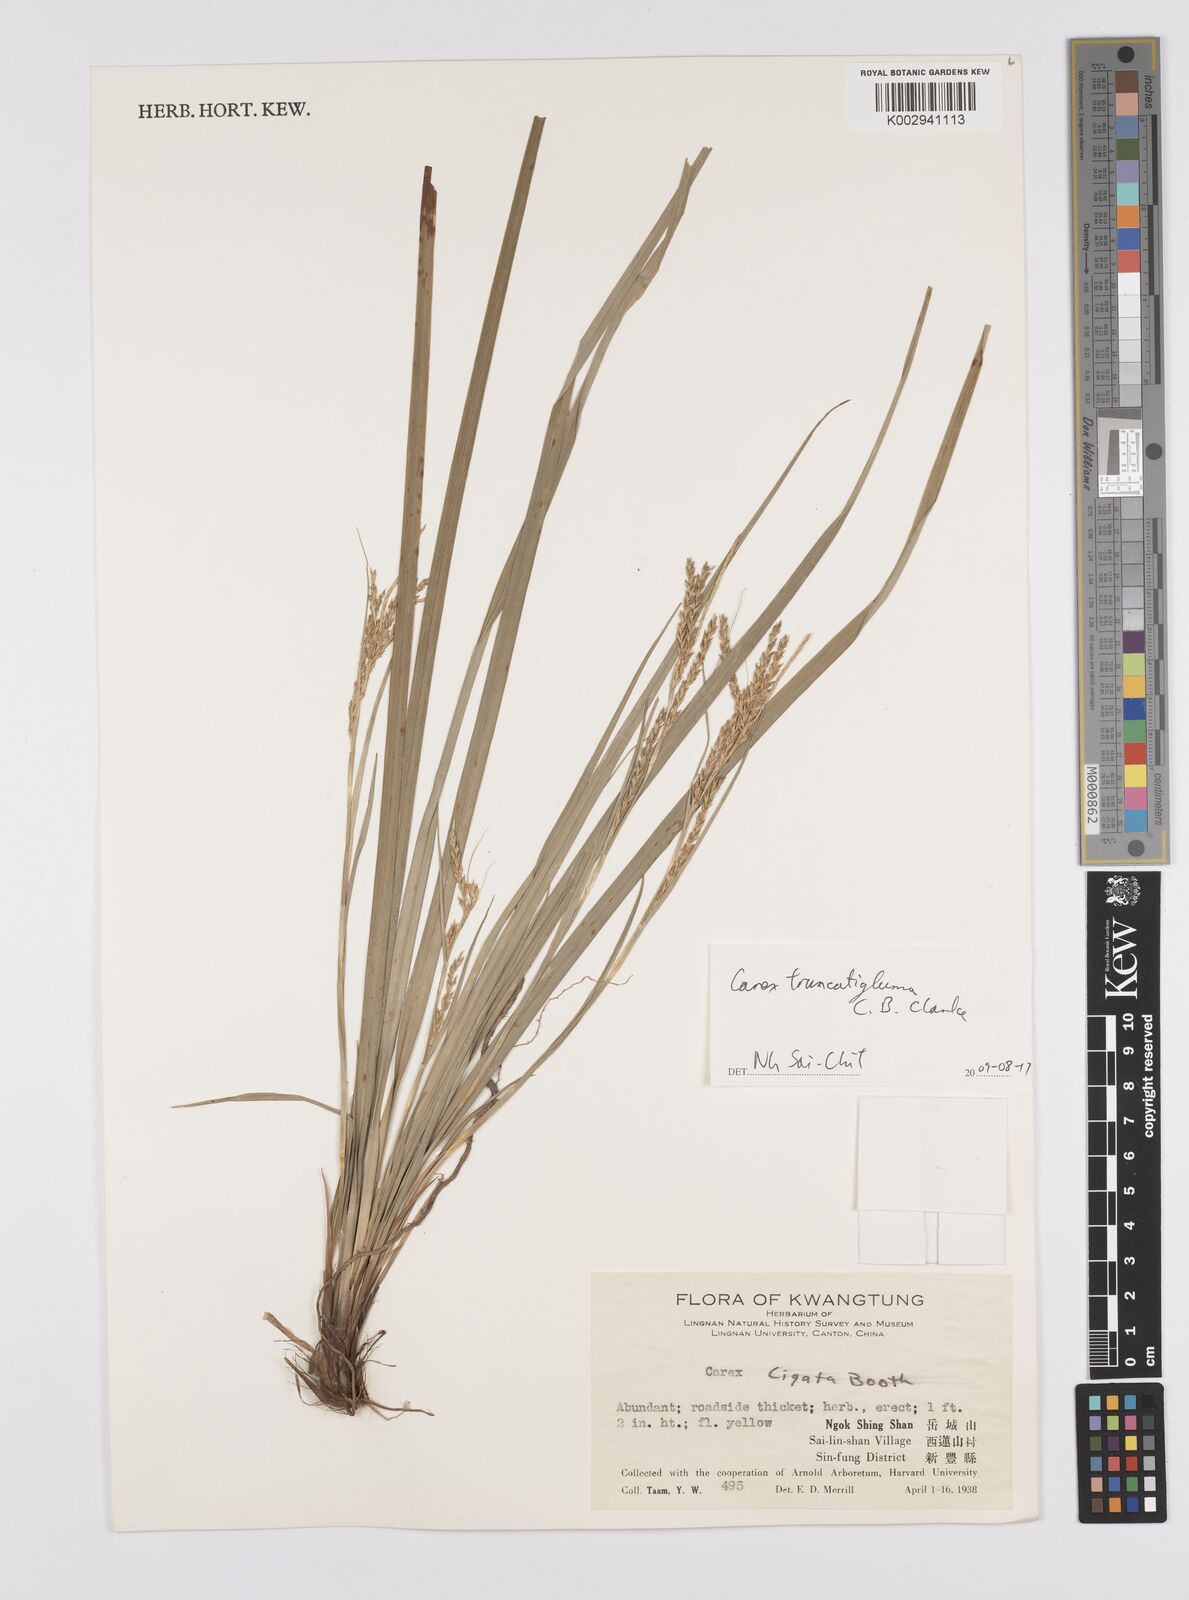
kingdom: Plantae
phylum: Tracheophyta
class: Liliopsida
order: Poales
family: Cyperaceae
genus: Carex
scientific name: Carex truncatigluma
